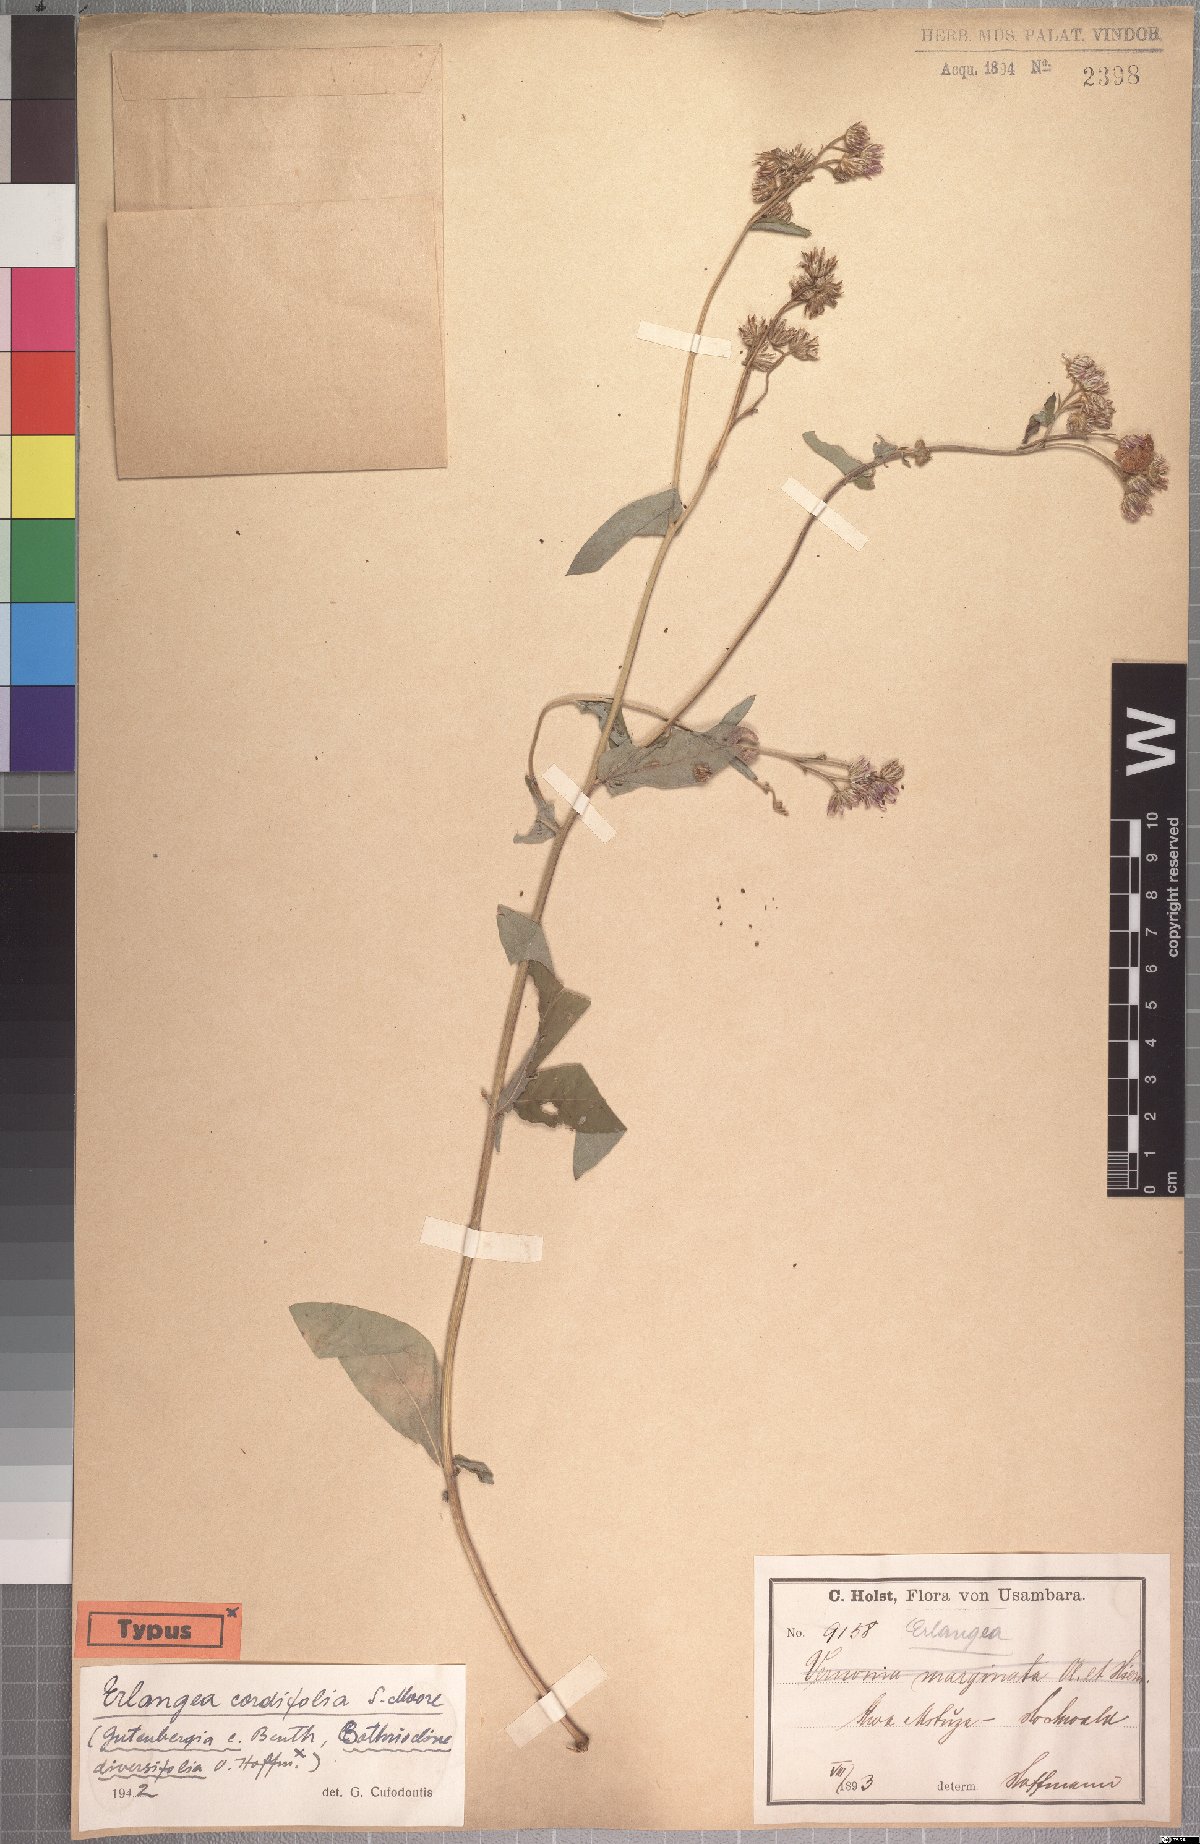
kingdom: Plantae
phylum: Tracheophyta
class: Magnoliopsida
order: Asterales
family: Asteraceae
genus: Gutenbergia
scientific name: Gutenbergia cordifolia
